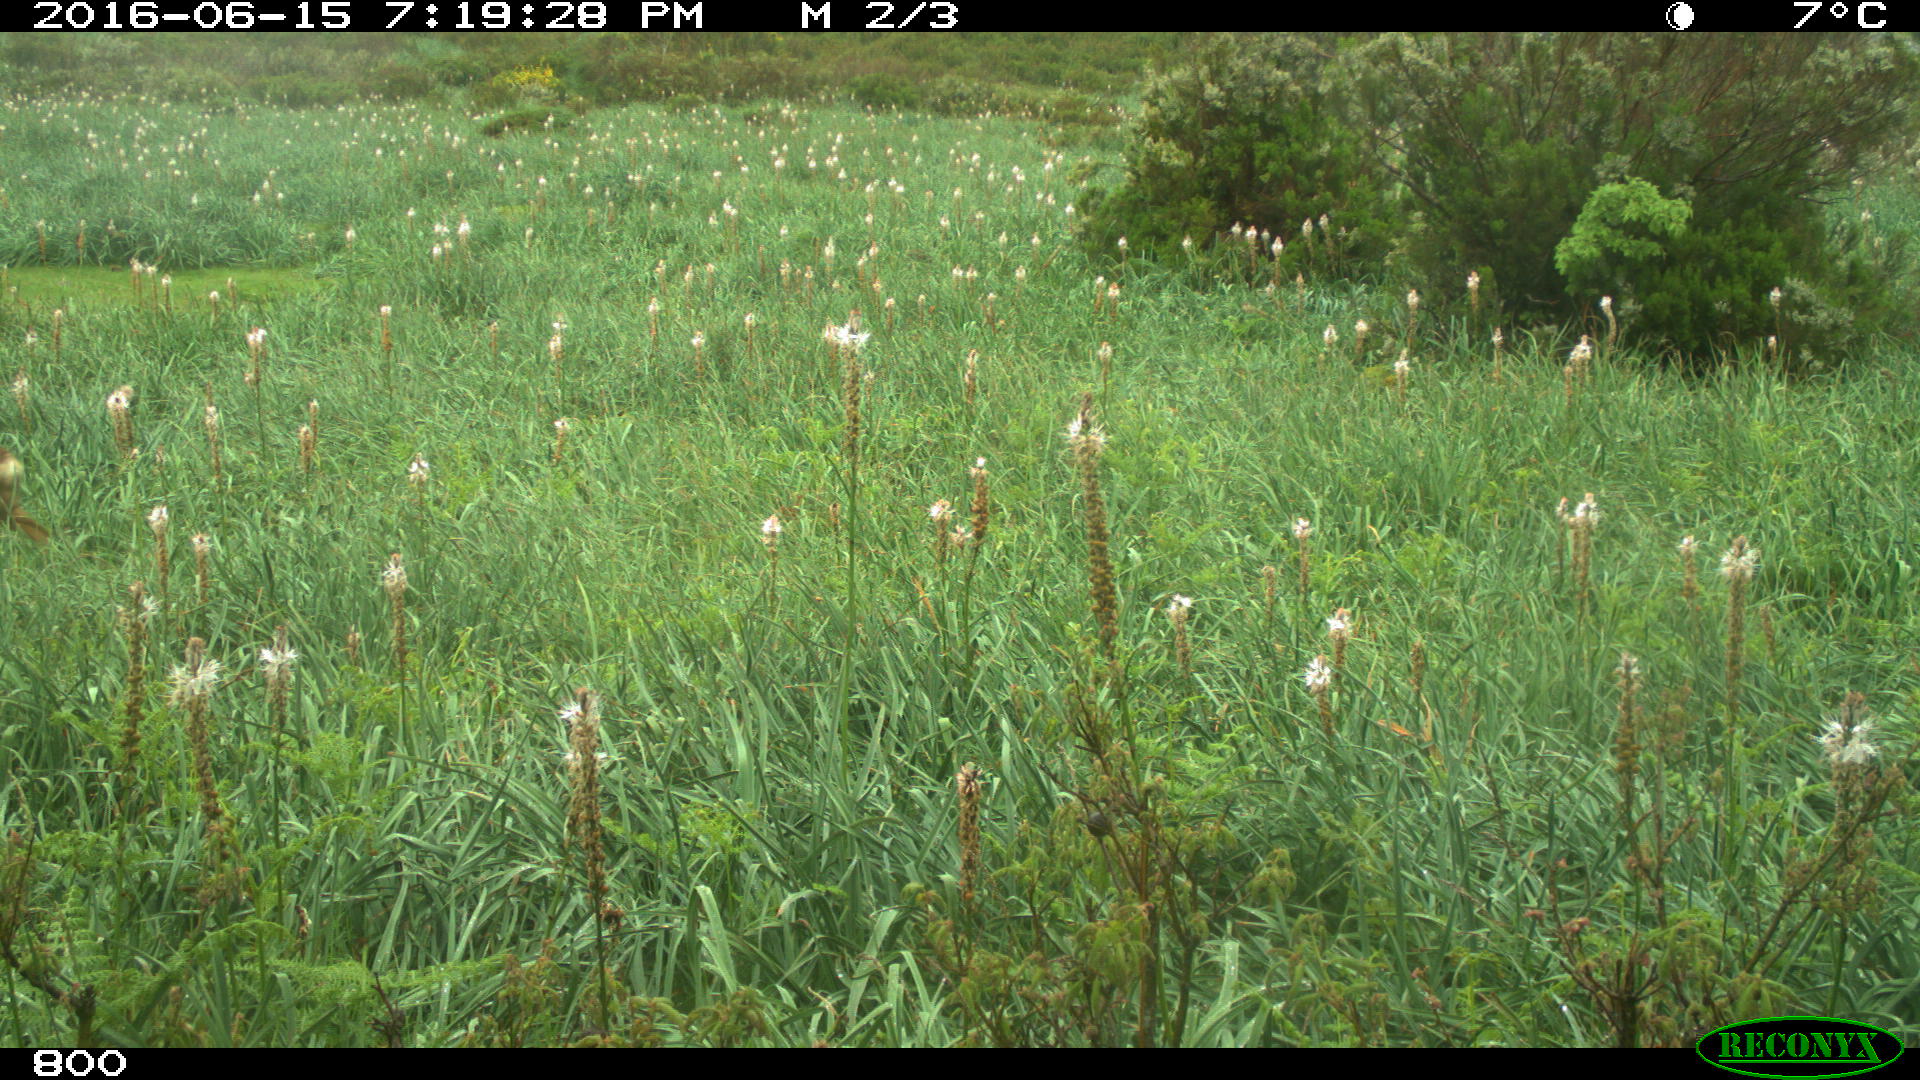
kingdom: Animalia
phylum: Chordata
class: Mammalia
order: Artiodactyla
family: Cervidae
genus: Capreolus
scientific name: Capreolus capreolus
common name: Western roe deer
